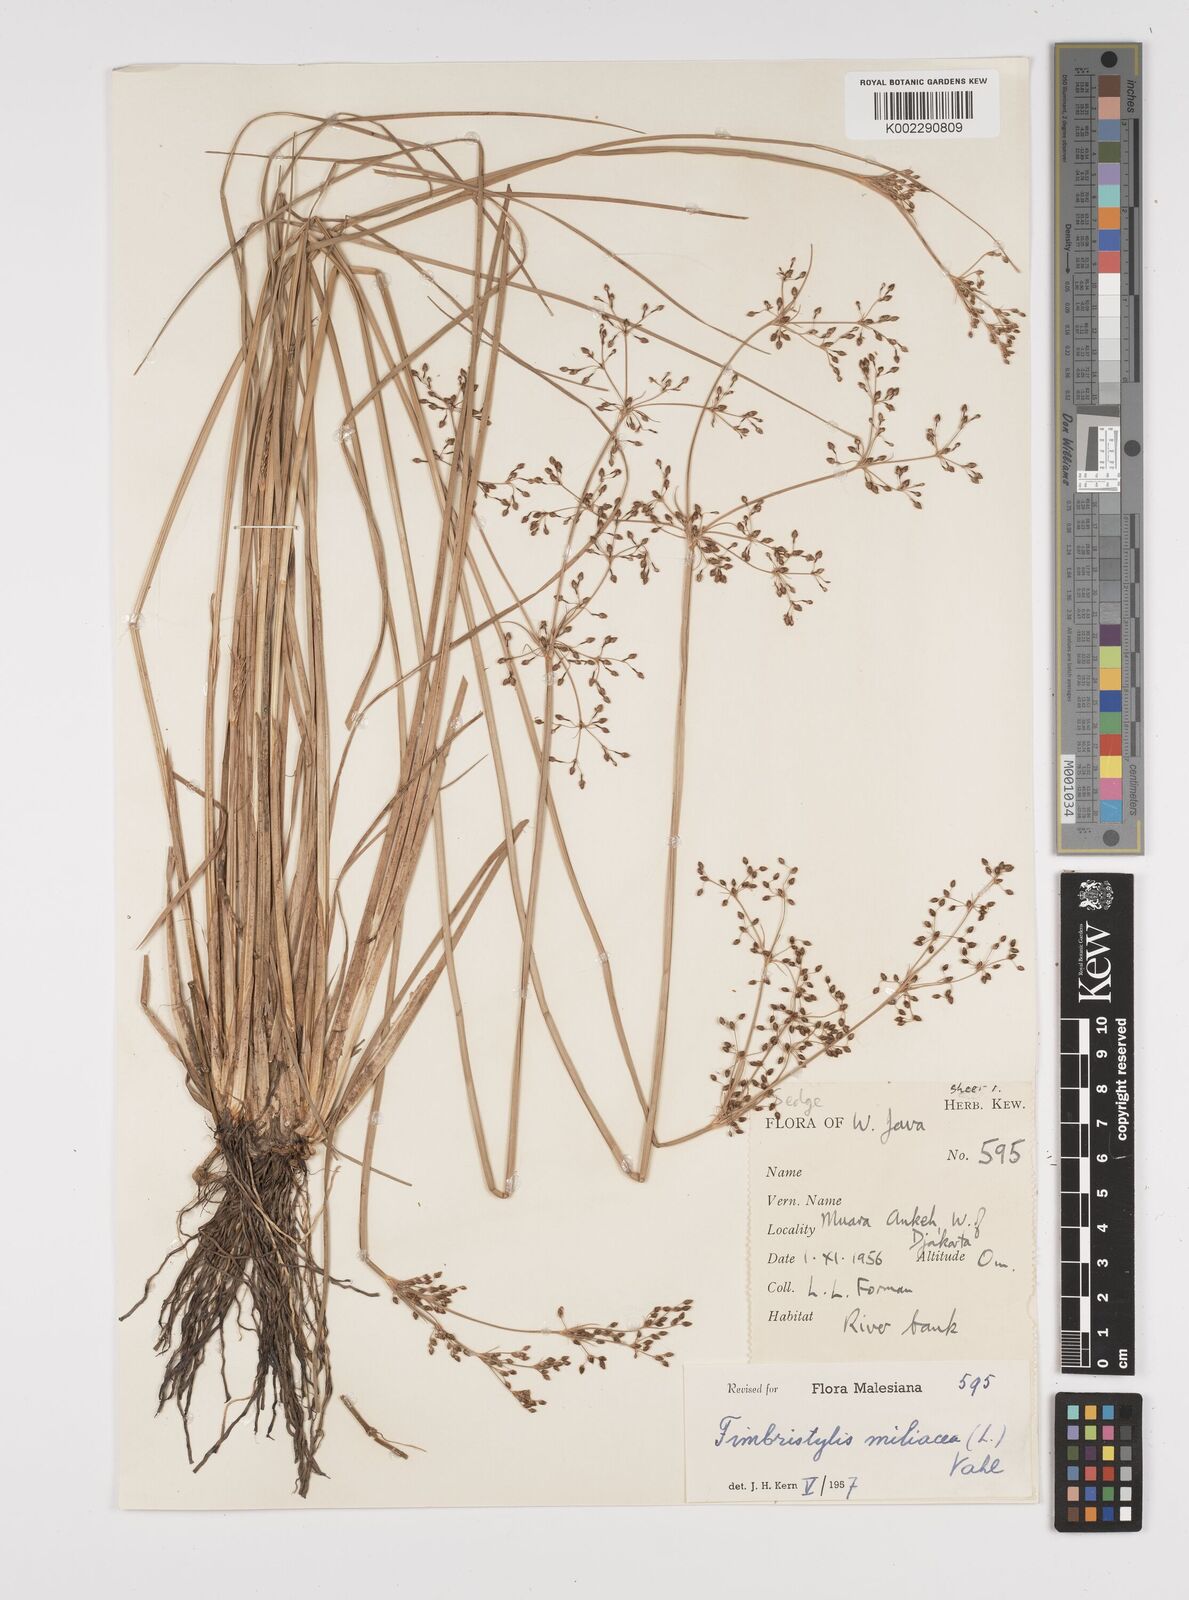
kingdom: Plantae
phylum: Tracheophyta
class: Liliopsida
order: Poales
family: Cyperaceae
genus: Fimbristylis
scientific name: Fimbristylis littoralis
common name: Fimbry
